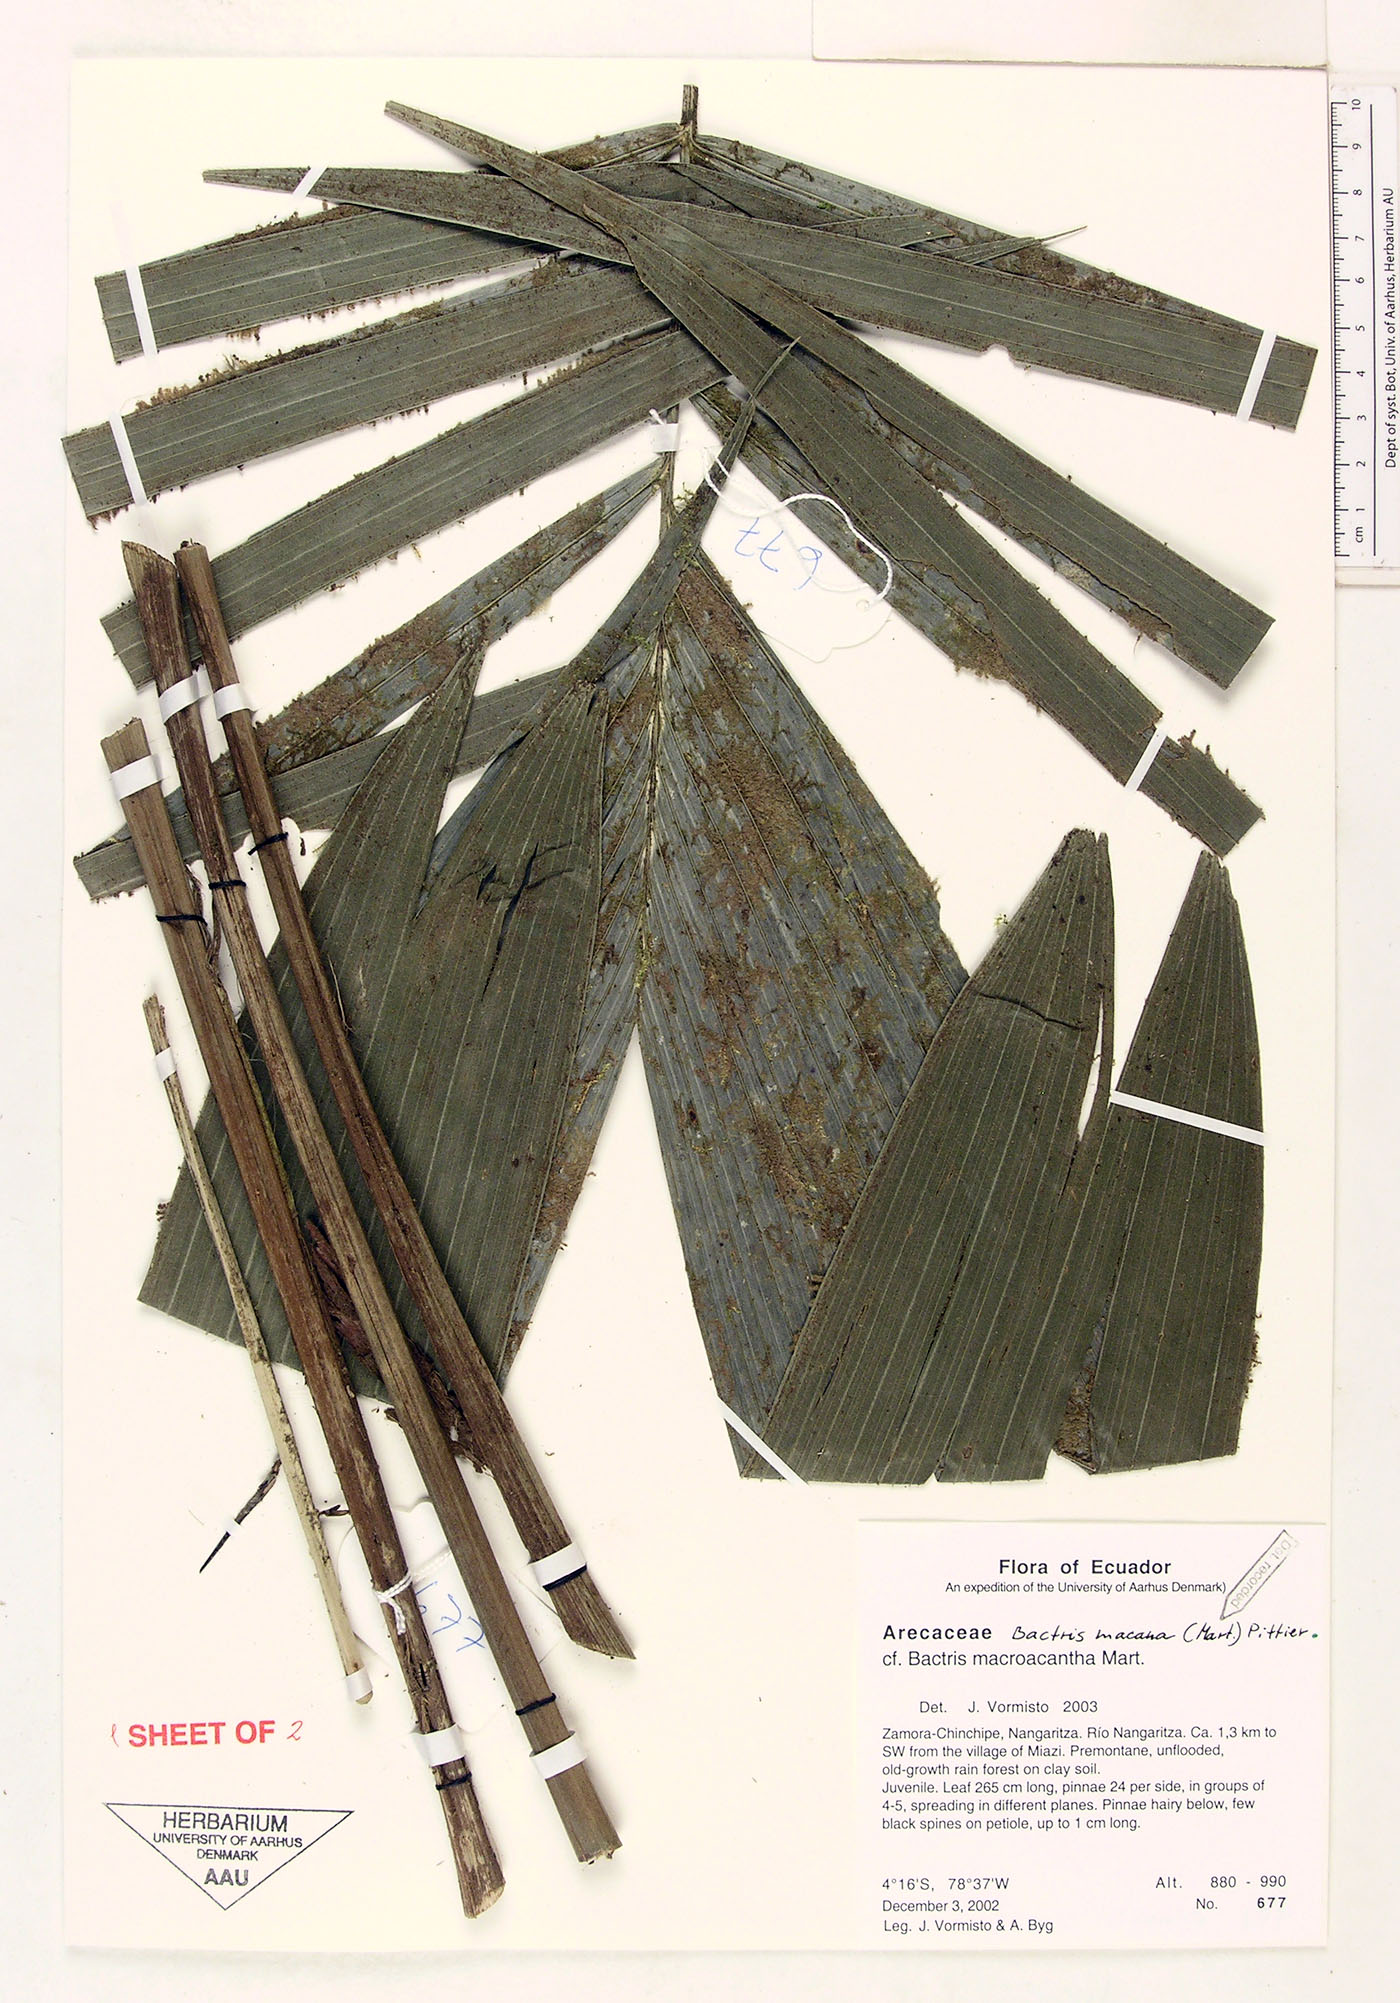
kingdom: Plantae
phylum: Tracheophyta
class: Liliopsida
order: Arecales
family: Arecaceae
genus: Bactris
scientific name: Bactris gasipaes
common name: Peach palm
